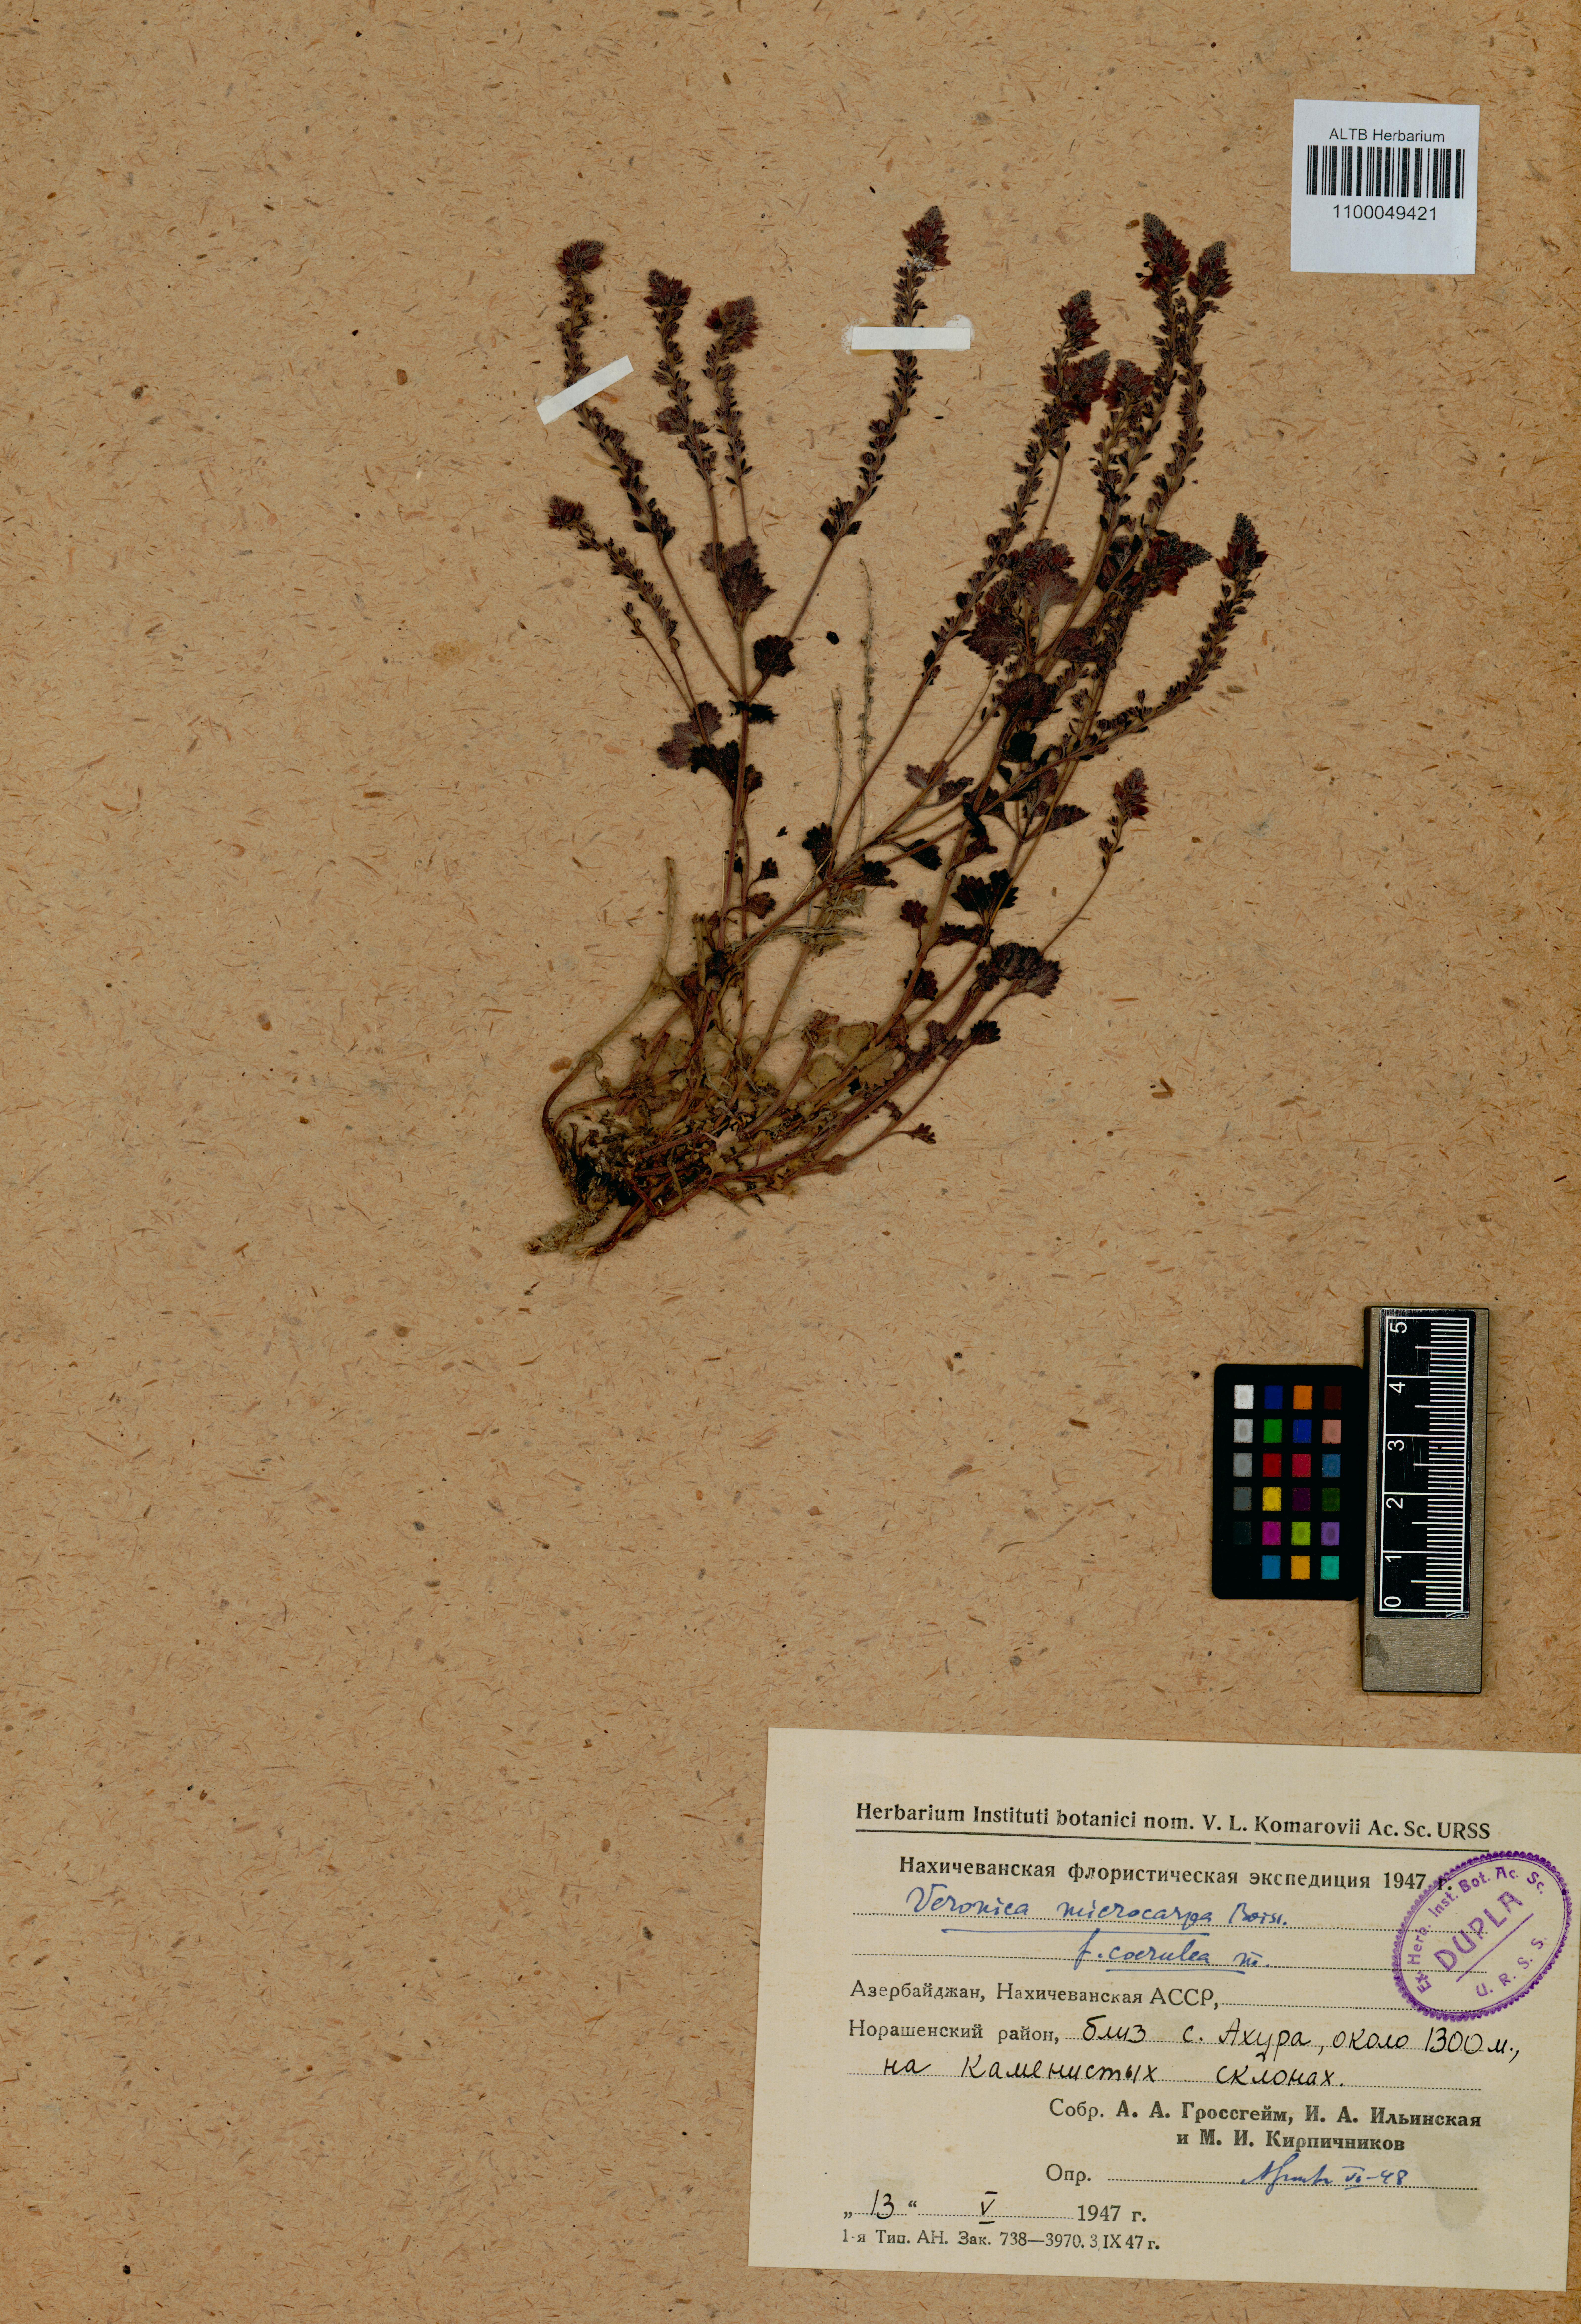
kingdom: Plantae
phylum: Tracheophyta
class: Magnoliopsida
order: Lamiales
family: Plantaginaceae
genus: Veronica
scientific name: Veronica microcarpa
